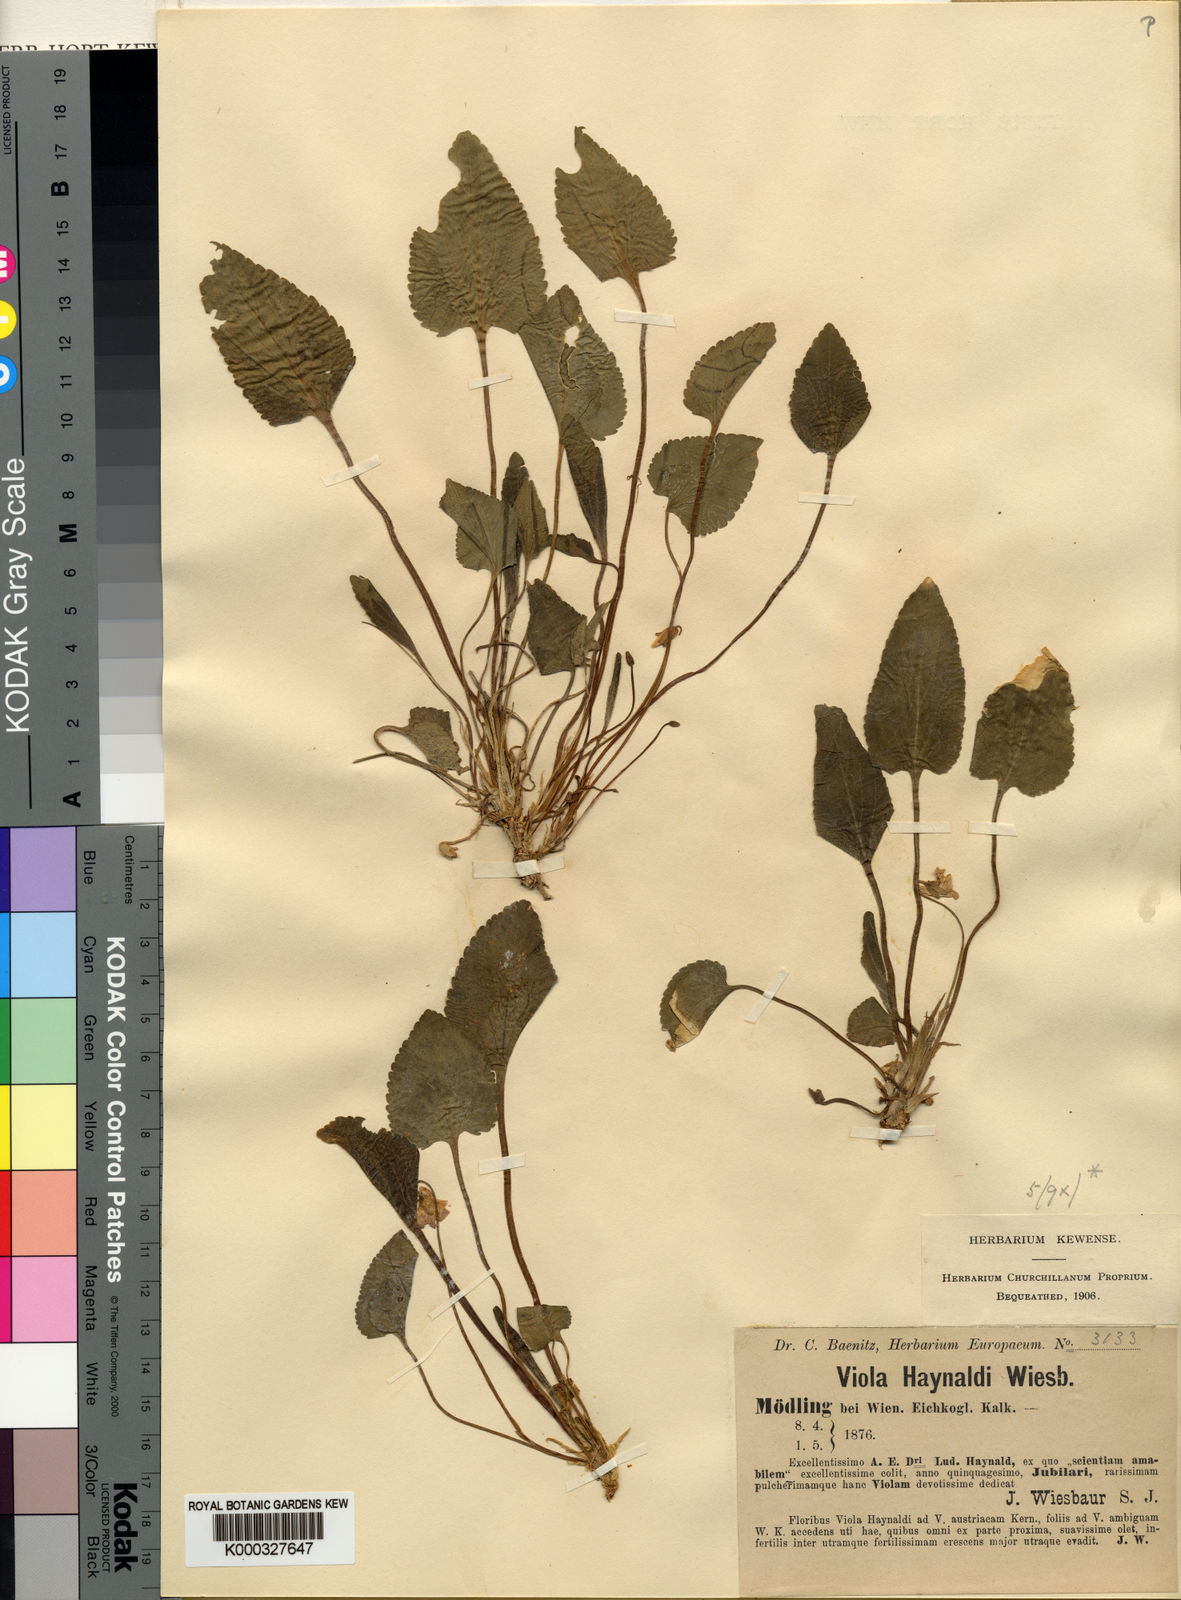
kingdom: Plantae
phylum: Tracheophyta
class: Magnoliopsida
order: Malpighiales
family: Violaceae
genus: Viola
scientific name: Viola ambigua
